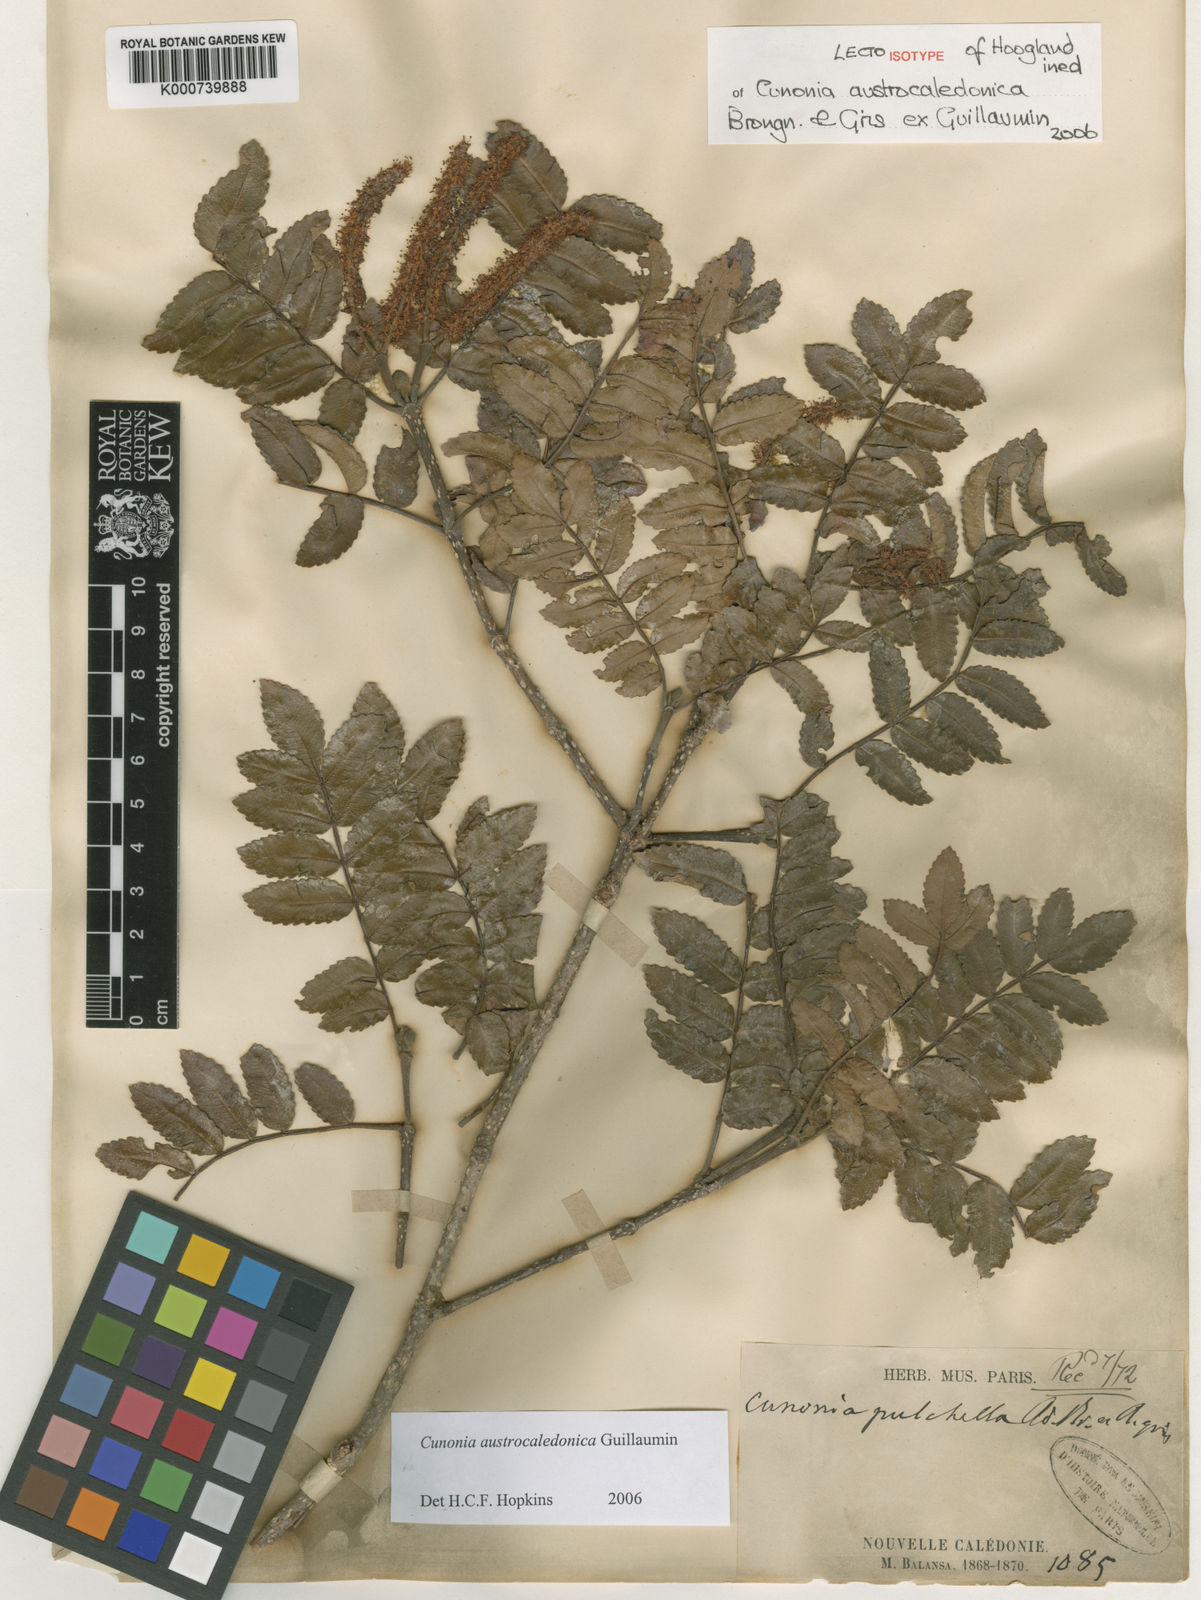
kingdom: Plantae
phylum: Tracheophyta
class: Magnoliopsida
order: Oxalidales
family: Cunoniaceae
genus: Cunonia
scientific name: Cunonia austrocaledonica
